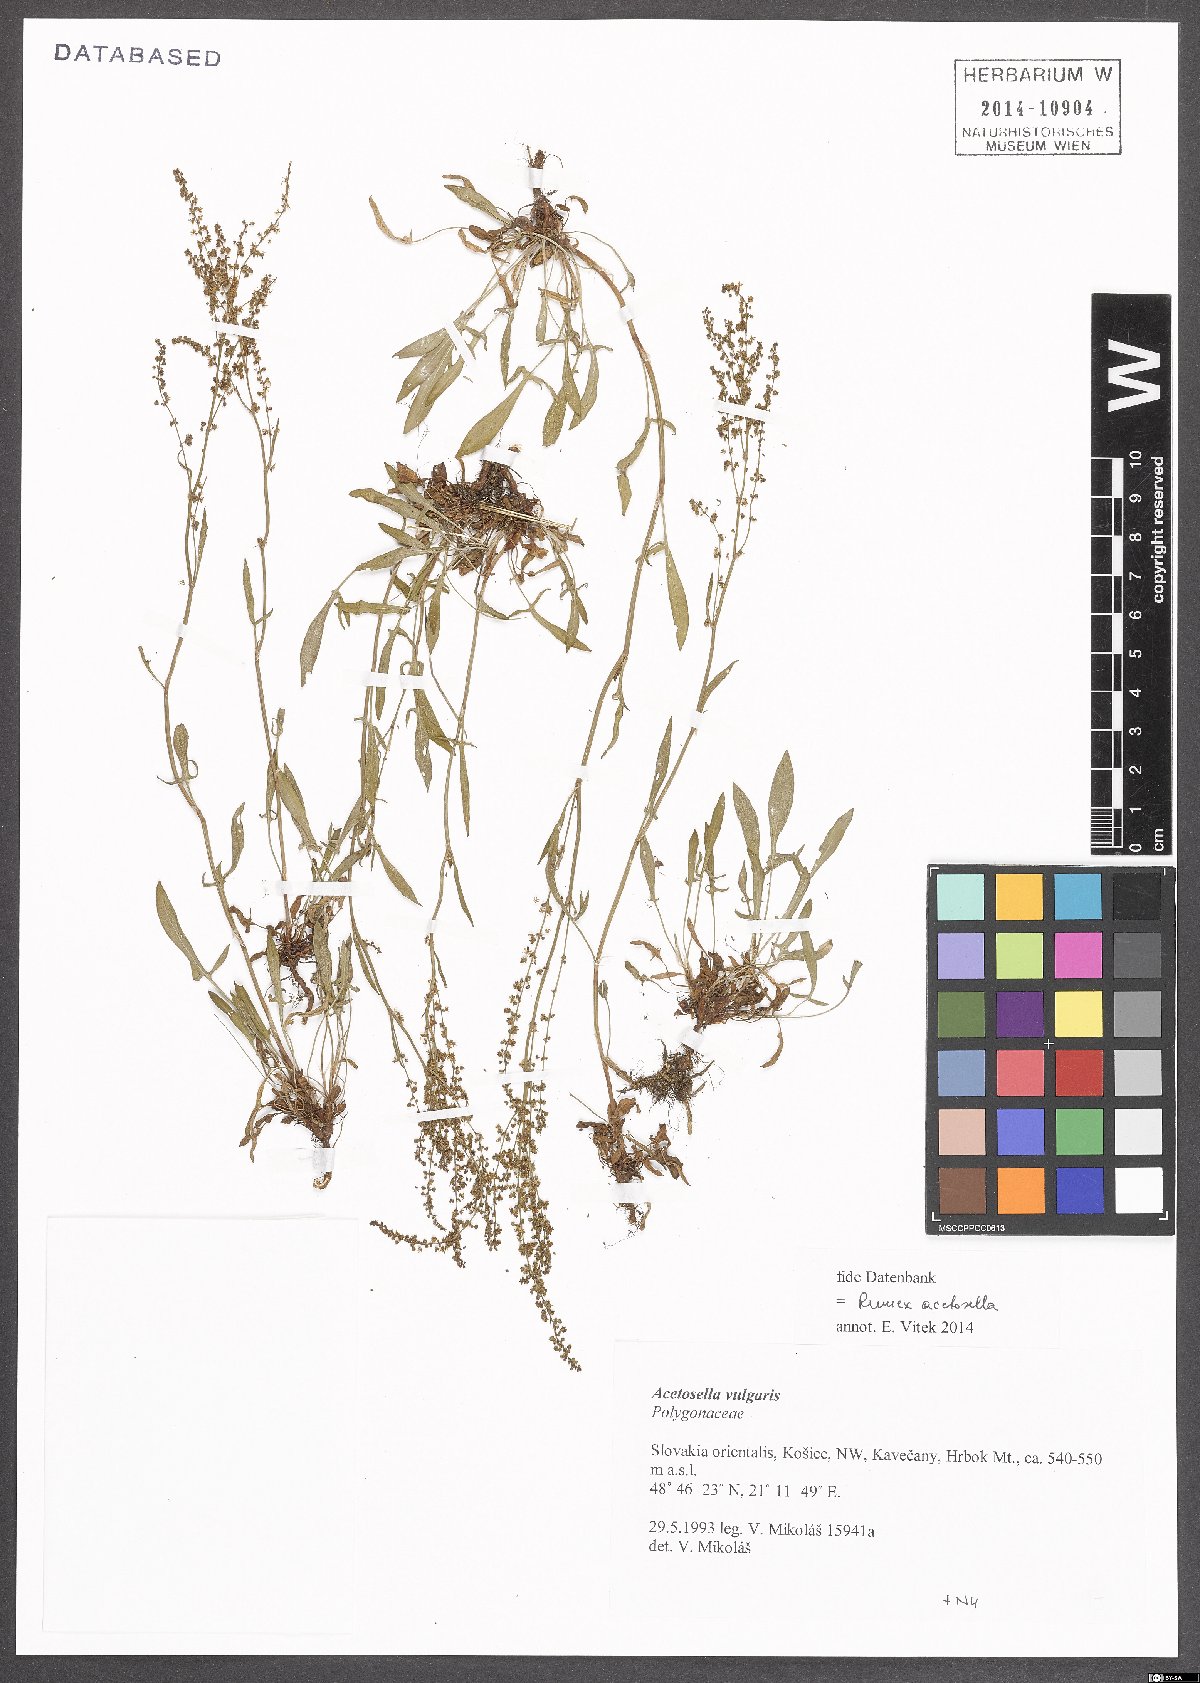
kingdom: Plantae
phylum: Tracheophyta
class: Magnoliopsida
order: Caryophyllales
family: Polygonaceae
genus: Rumex
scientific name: Rumex acetosella
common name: Common sheep sorrel
